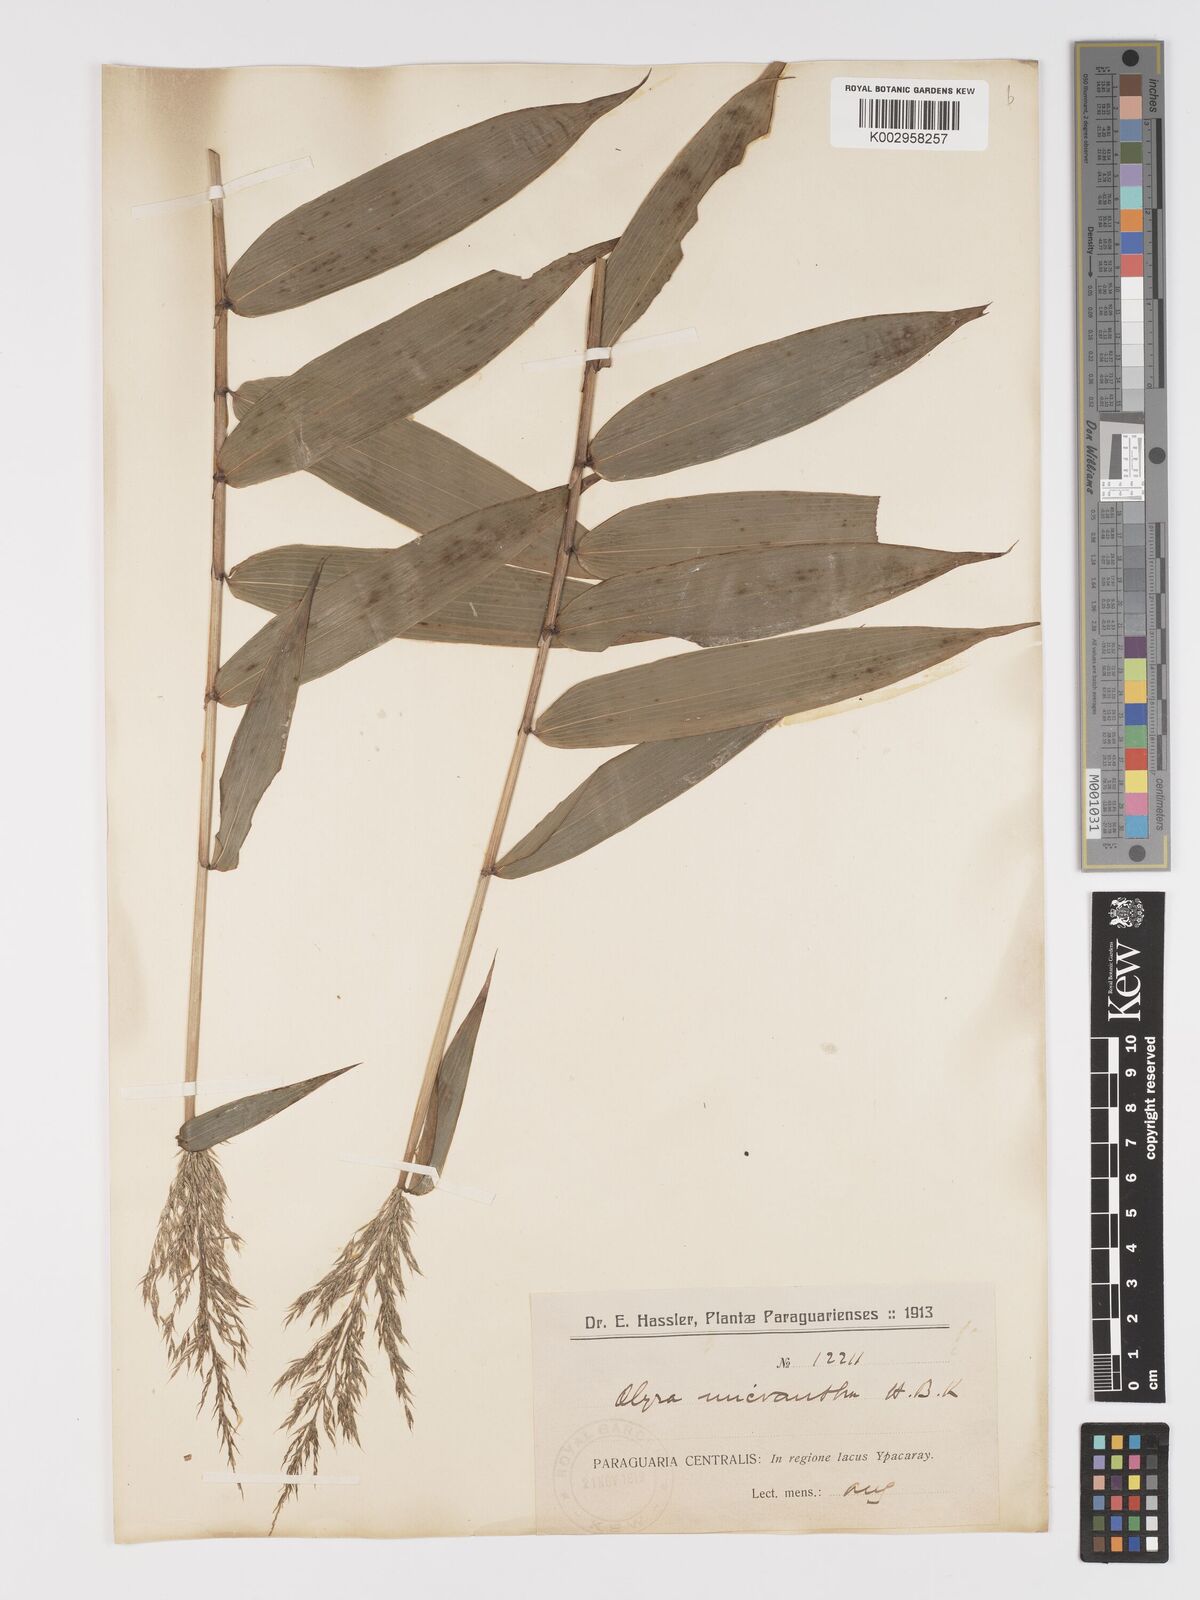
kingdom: Plantae
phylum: Tracheophyta
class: Liliopsida
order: Poales
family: Poaceae
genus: Taquara
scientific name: Taquara micrantha
